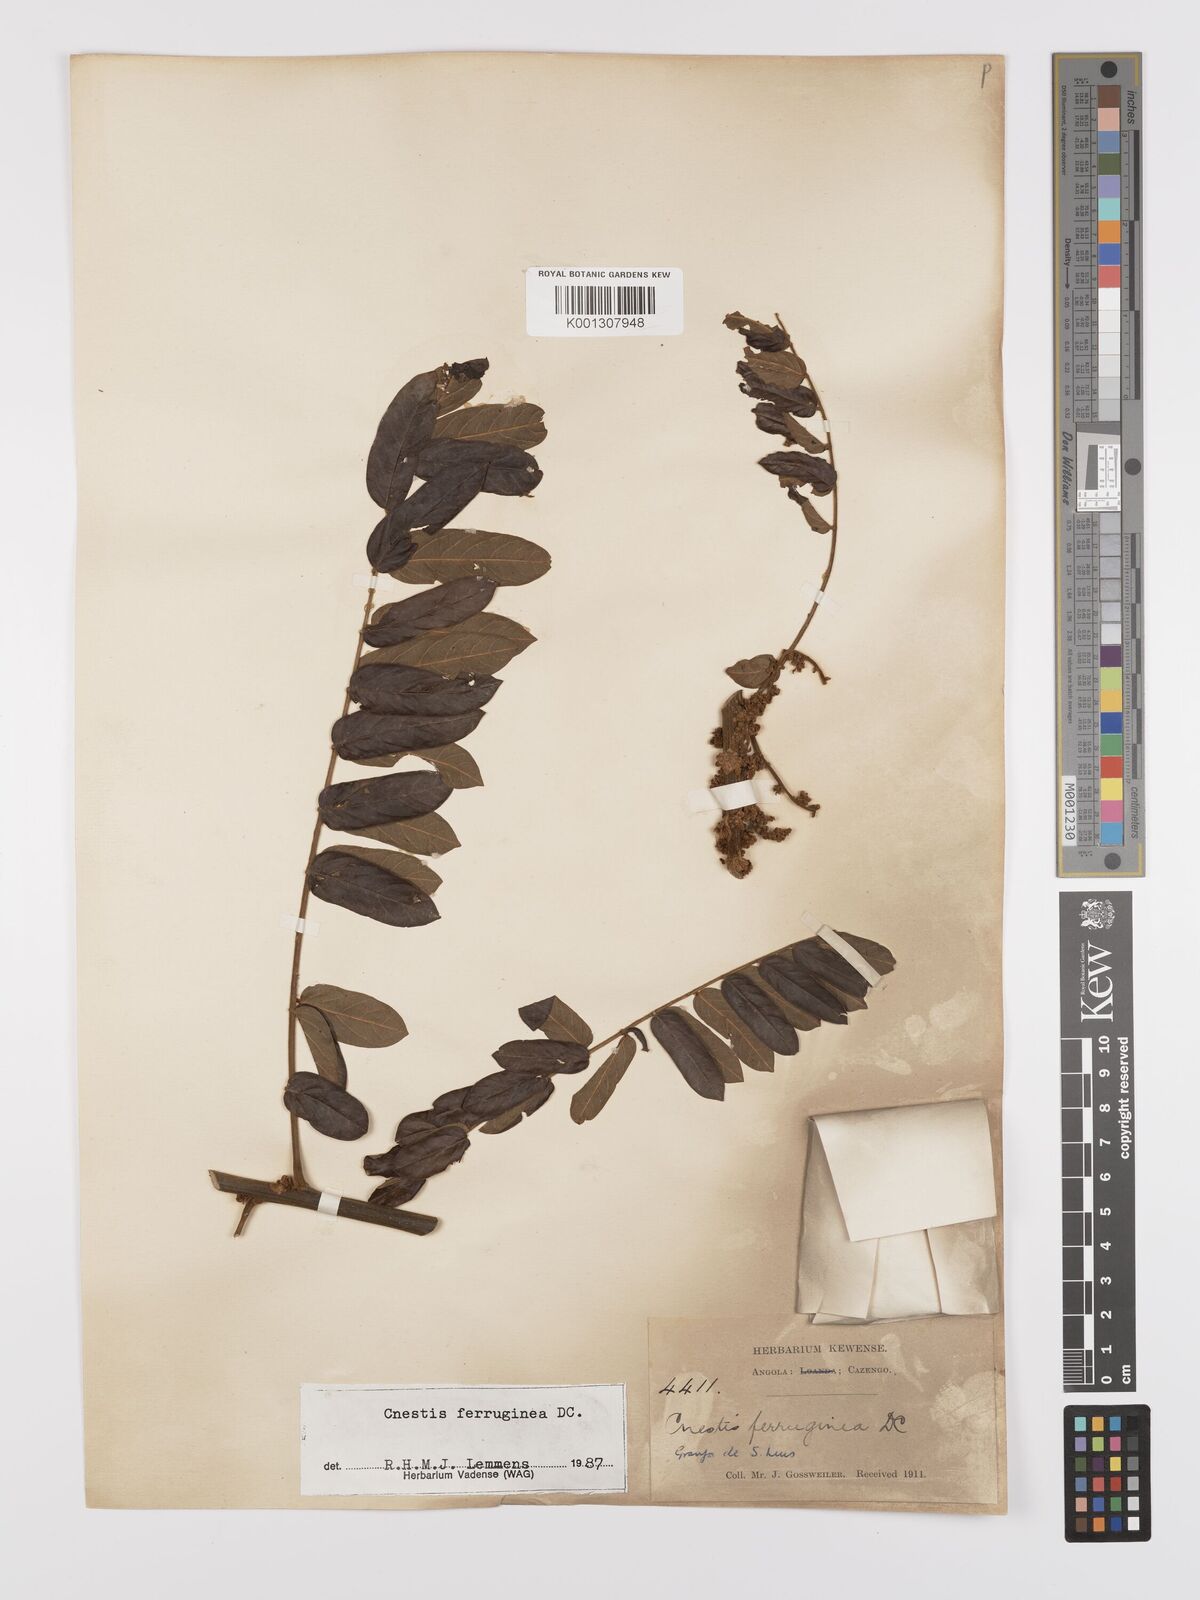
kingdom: Plantae
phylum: Tracheophyta
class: Magnoliopsida
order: Oxalidales
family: Connaraceae
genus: Cnestis
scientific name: Cnestis ferruginea
